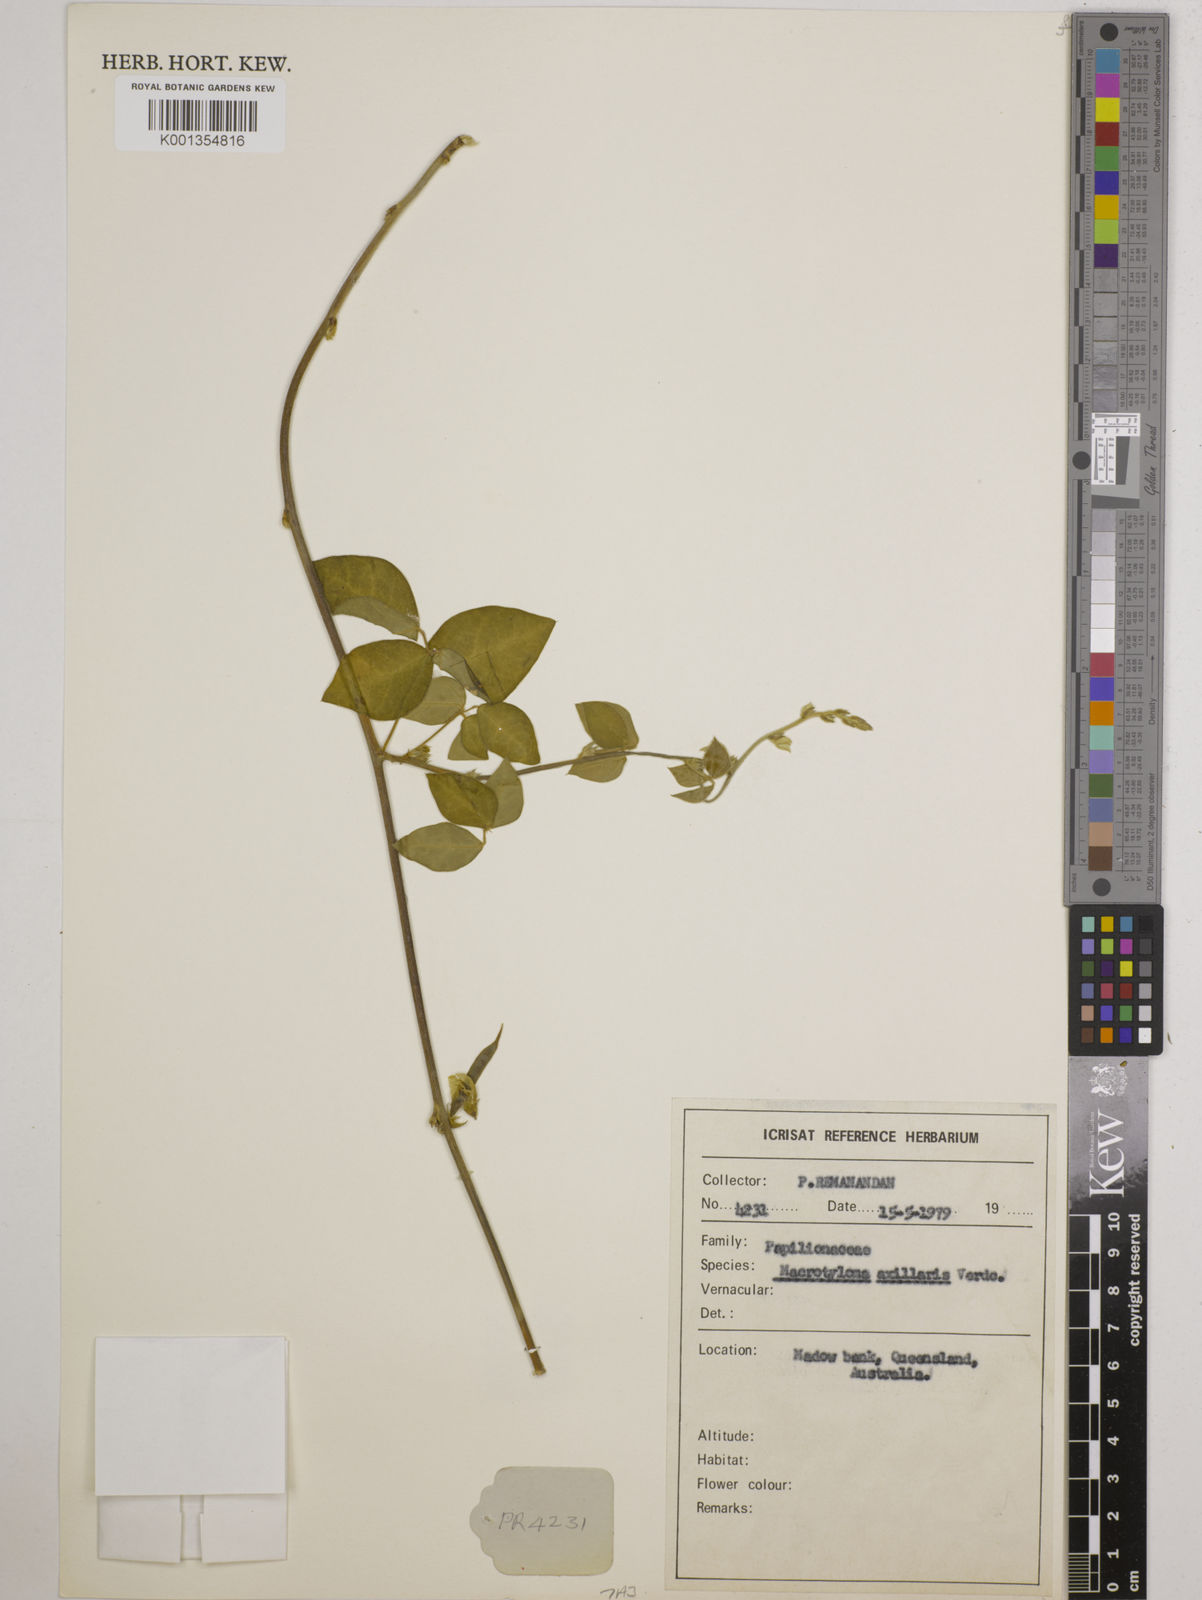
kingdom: Plantae
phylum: Tracheophyta
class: Magnoliopsida
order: Fabales
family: Fabaceae
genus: Macrotyloma
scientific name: Macrotyloma
